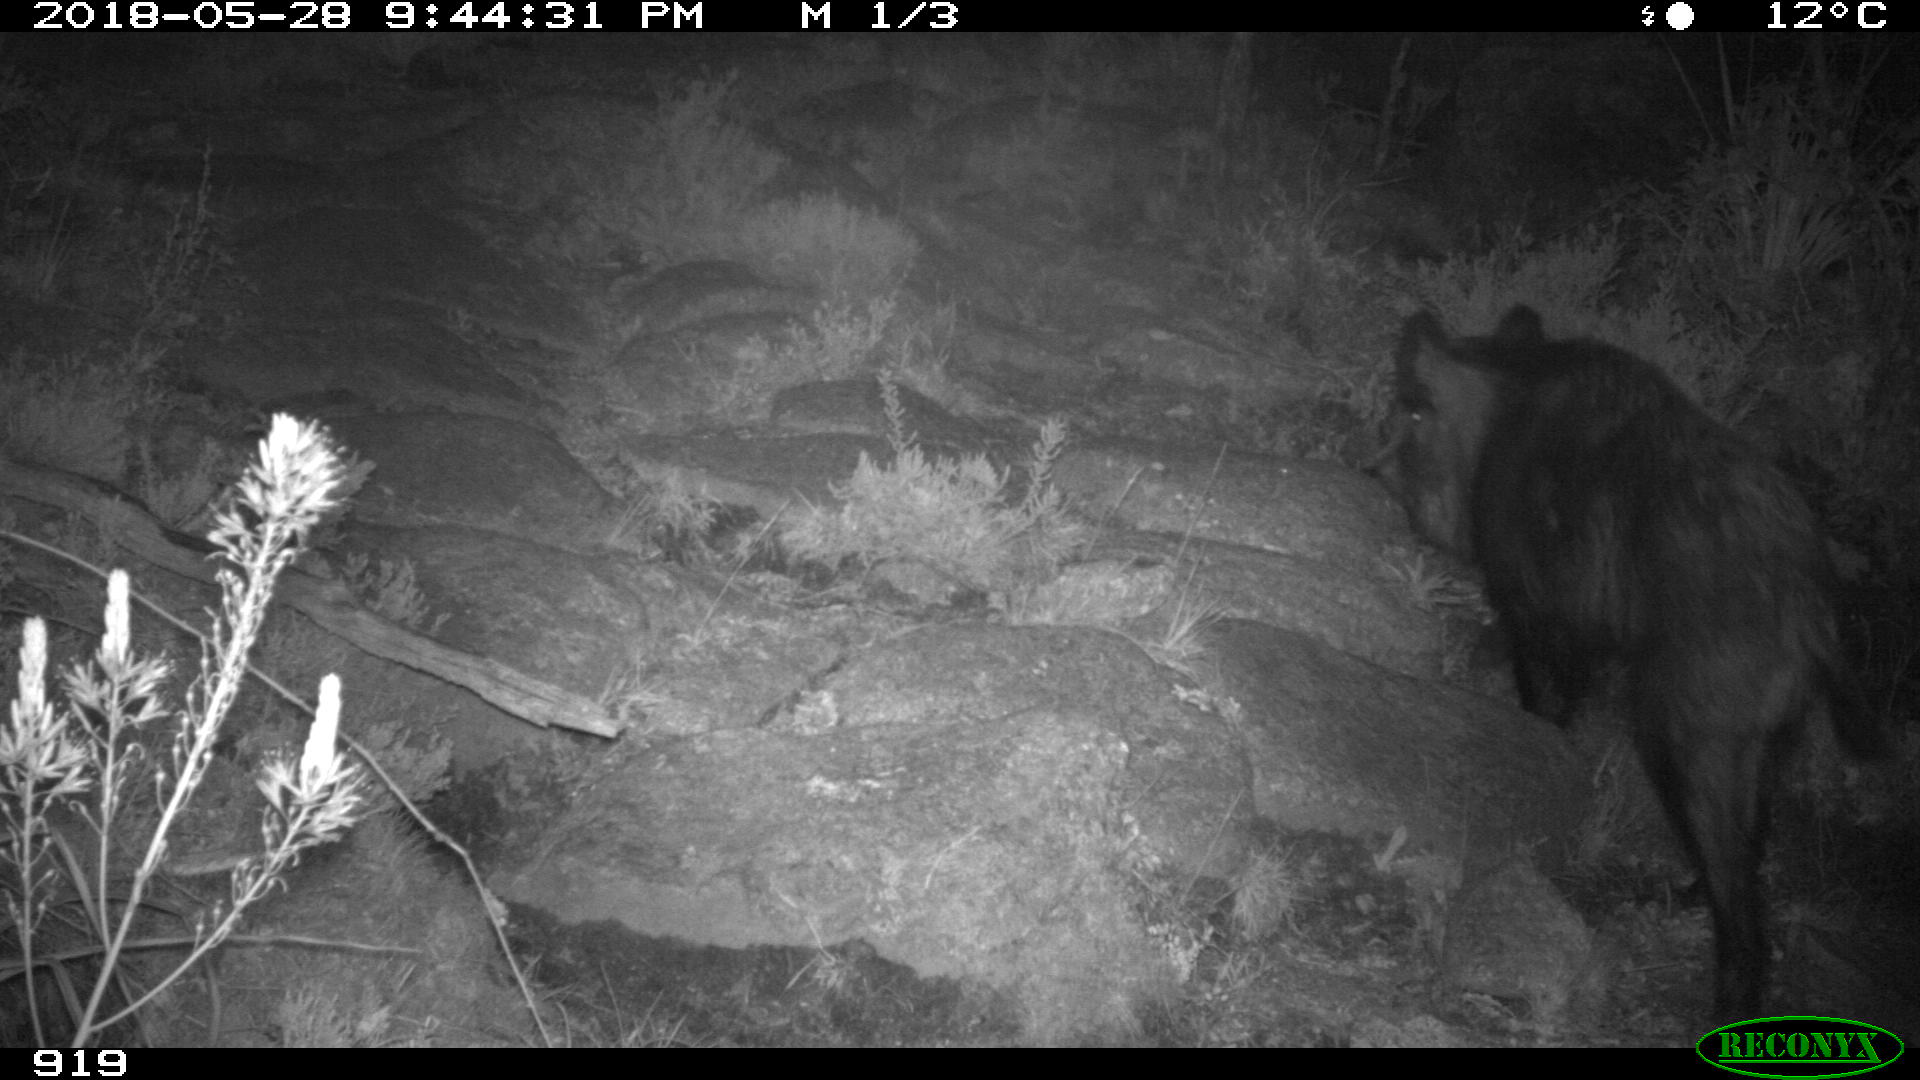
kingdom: Animalia
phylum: Chordata
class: Mammalia
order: Artiodactyla
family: Suidae
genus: Sus
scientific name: Sus scrofa
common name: Wild boar
